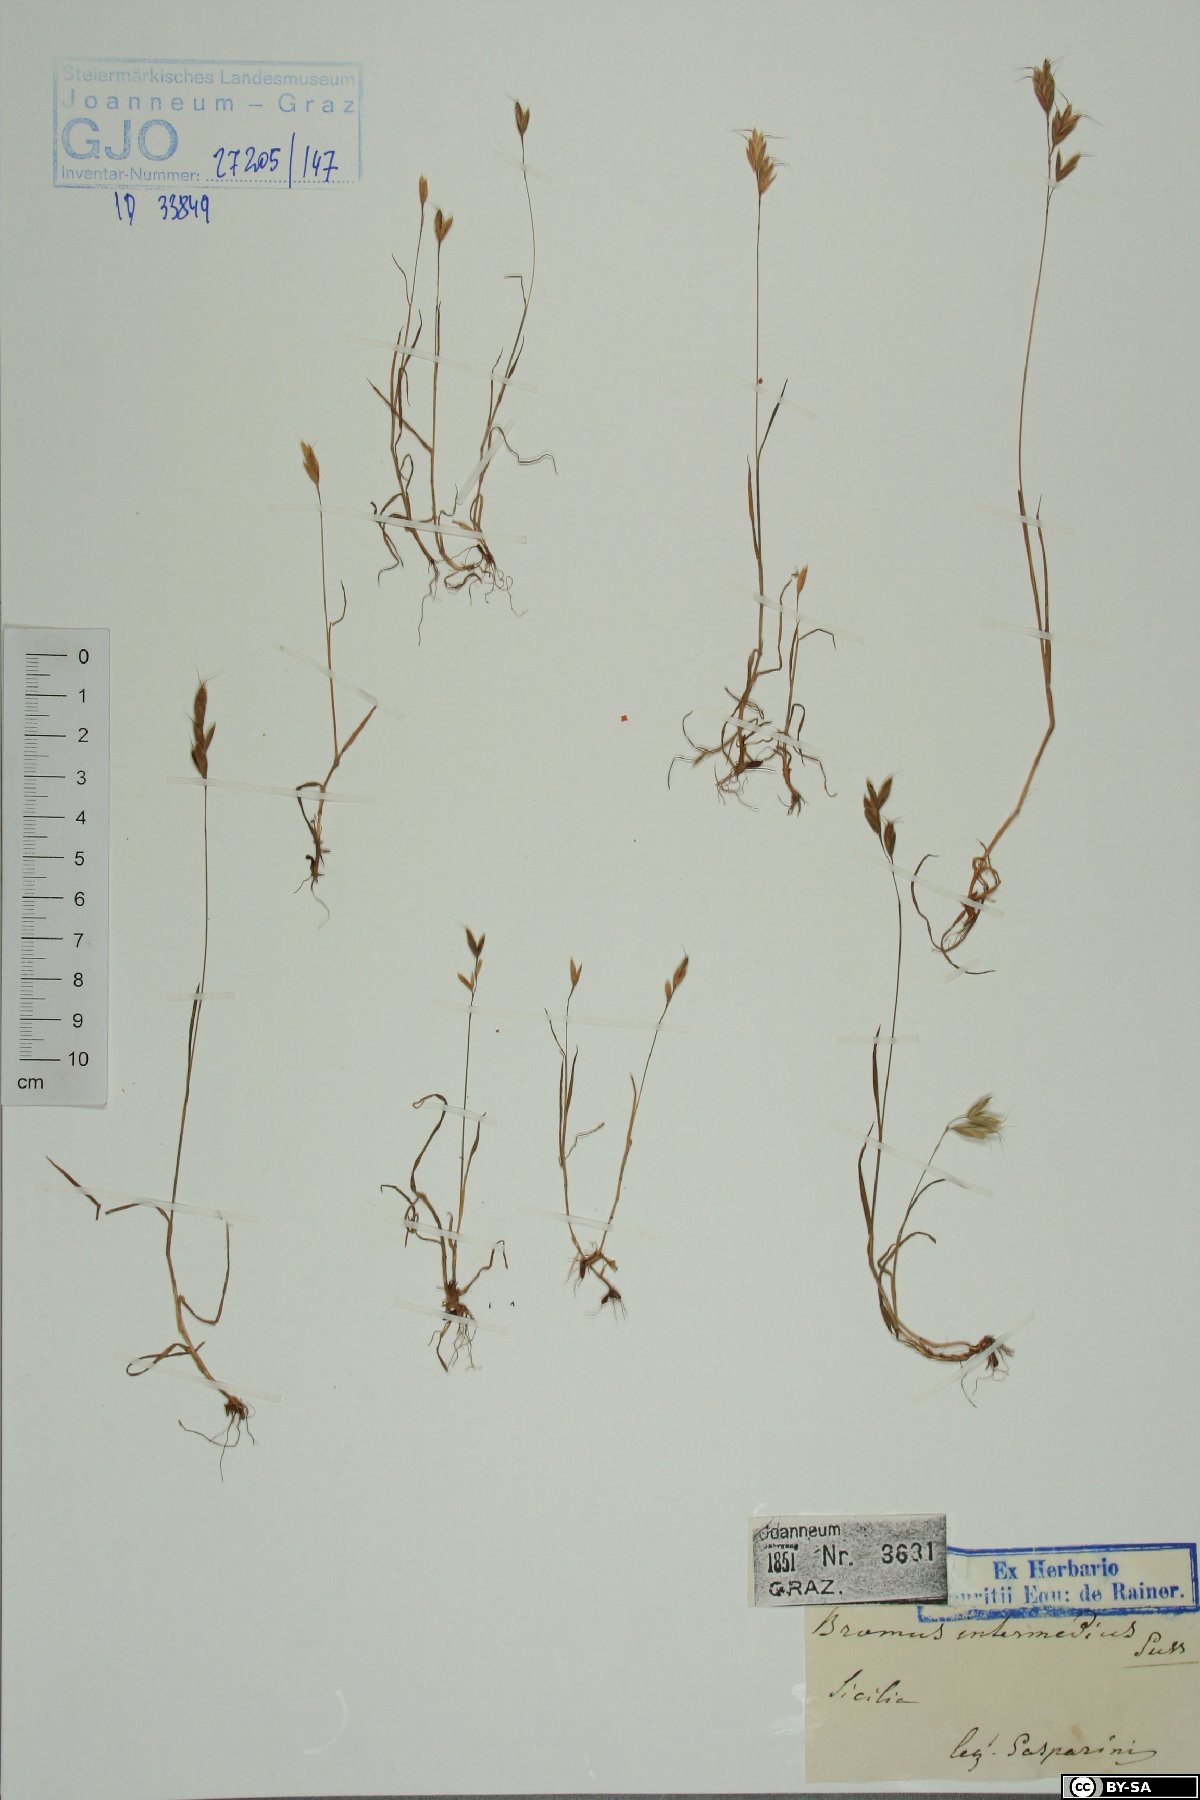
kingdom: Plantae
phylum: Tracheophyta
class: Liliopsida
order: Poales
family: Poaceae
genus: Bromus
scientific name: Bromus intermedius
